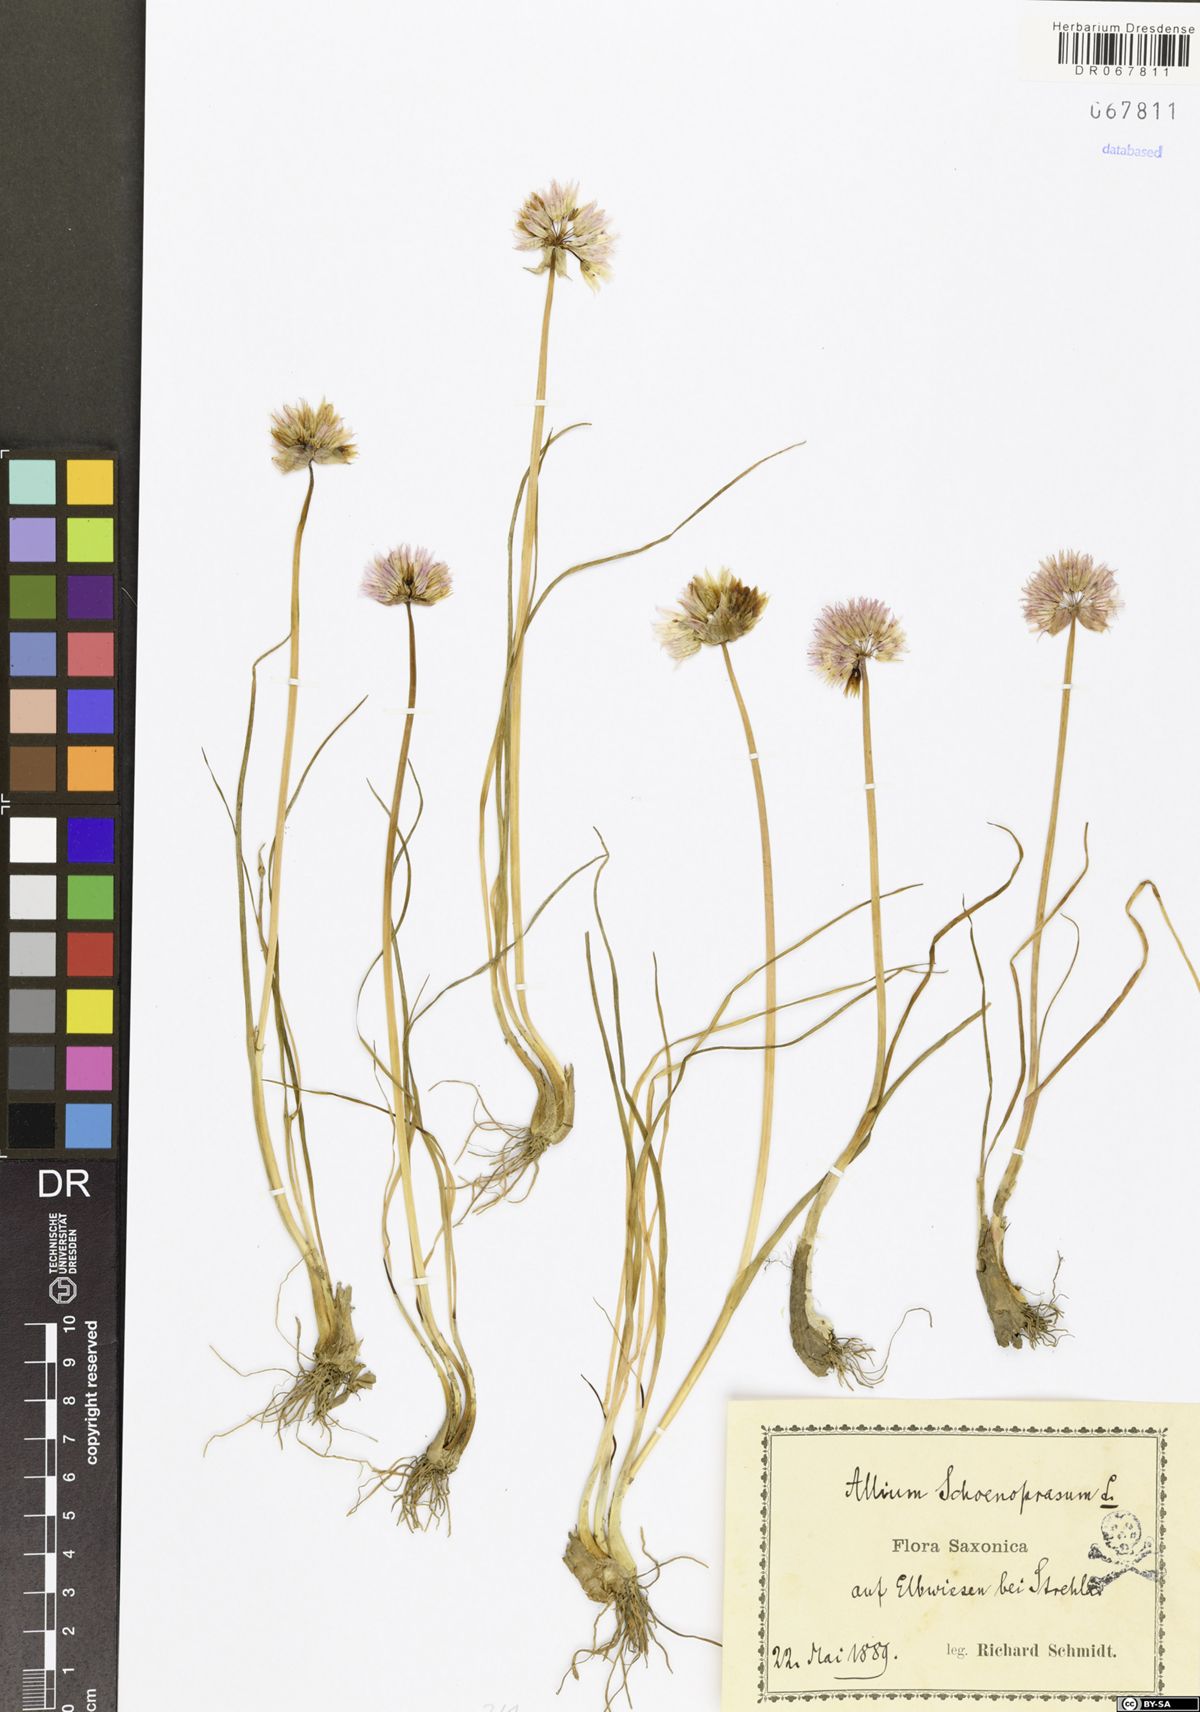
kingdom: Plantae
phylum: Tracheophyta
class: Liliopsida
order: Asparagales
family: Amaryllidaceae
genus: Allium
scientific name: Allium schoenoprasum
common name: Chives
